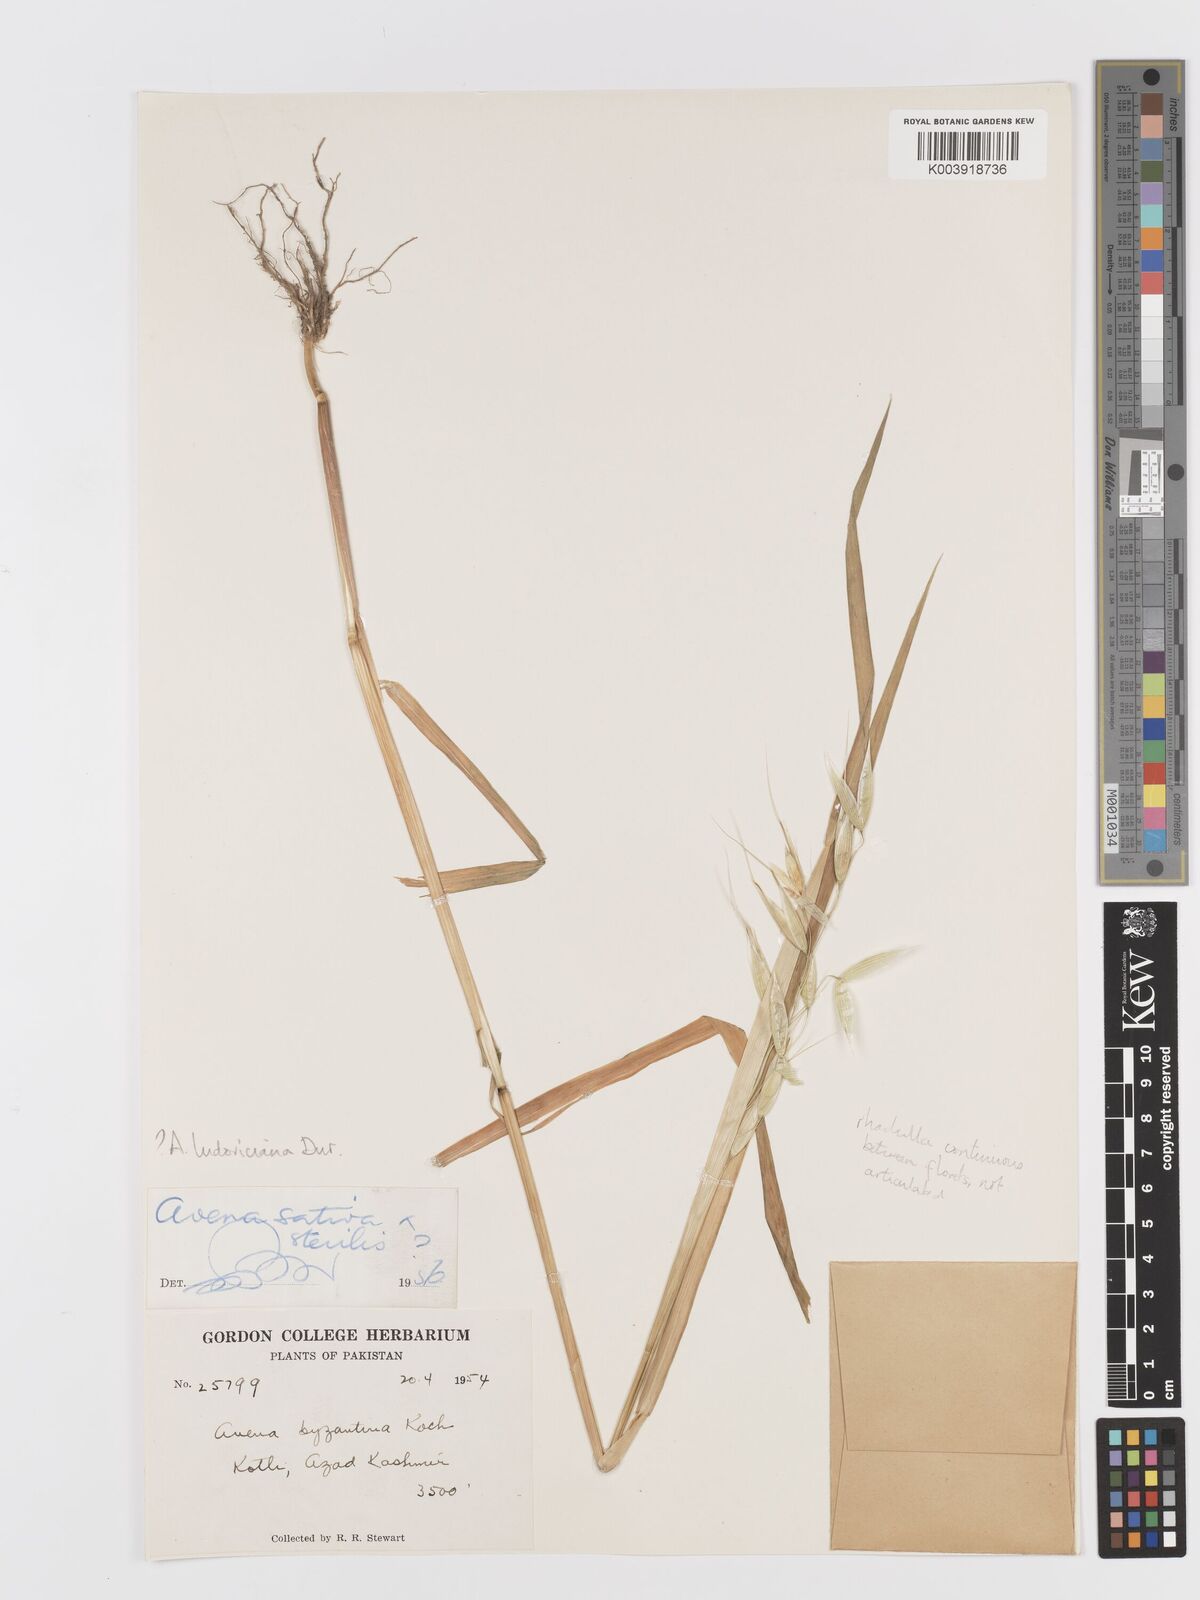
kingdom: Plantae
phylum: Tracheophyta
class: Liliopsida
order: Poales
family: Poaceae
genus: Avena
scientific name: Avena sterilis
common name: Animated oat
